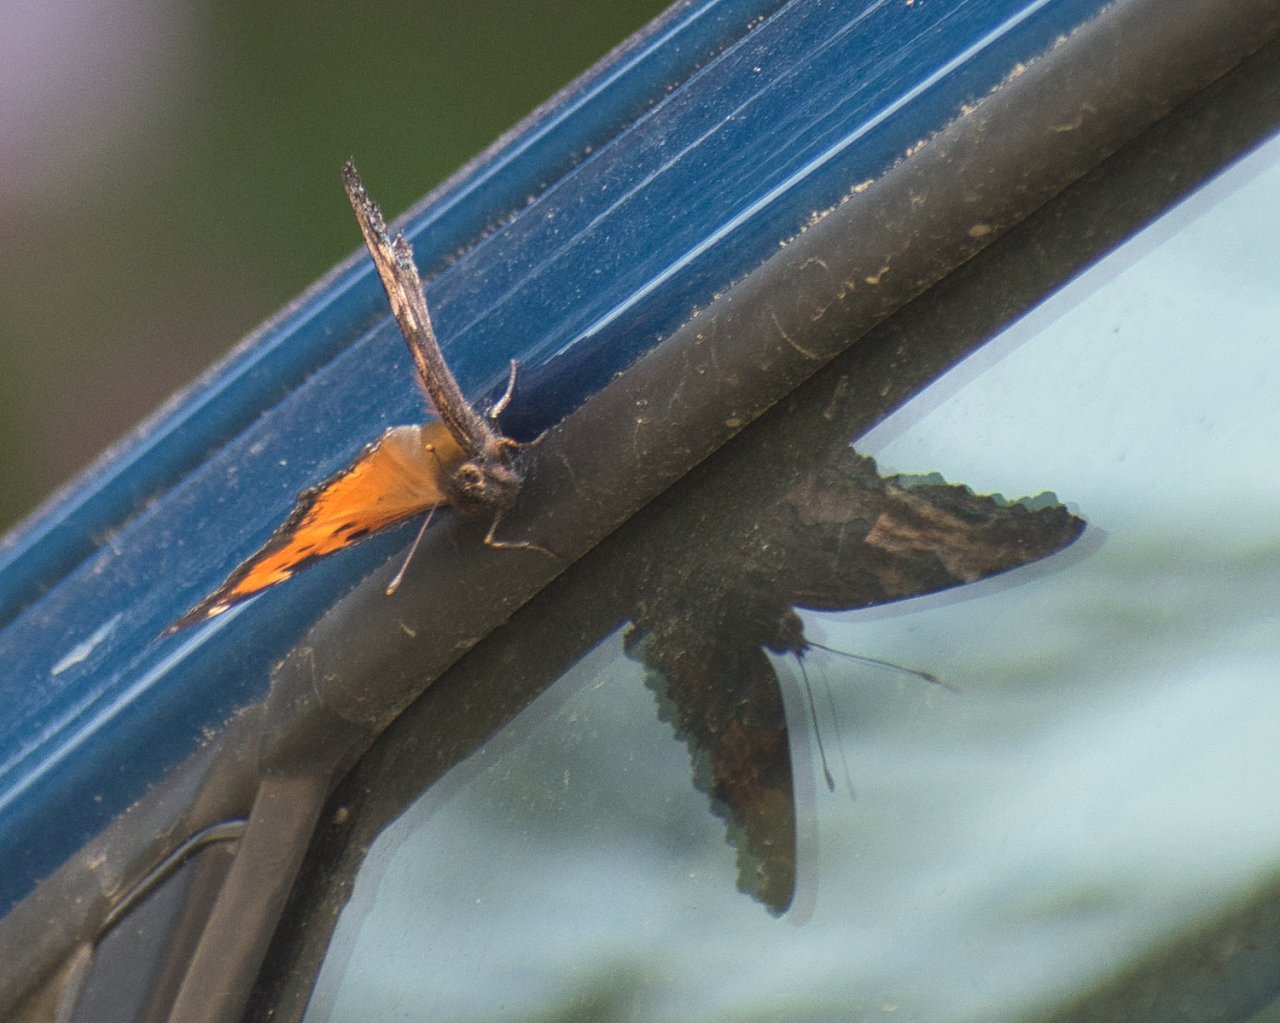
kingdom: Animalia
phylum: Arthropoda
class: Insecta
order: Lepidoptera
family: Nymphalidae
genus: Nymphalis
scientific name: Nymphalis californica
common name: California Tortoiseshell
